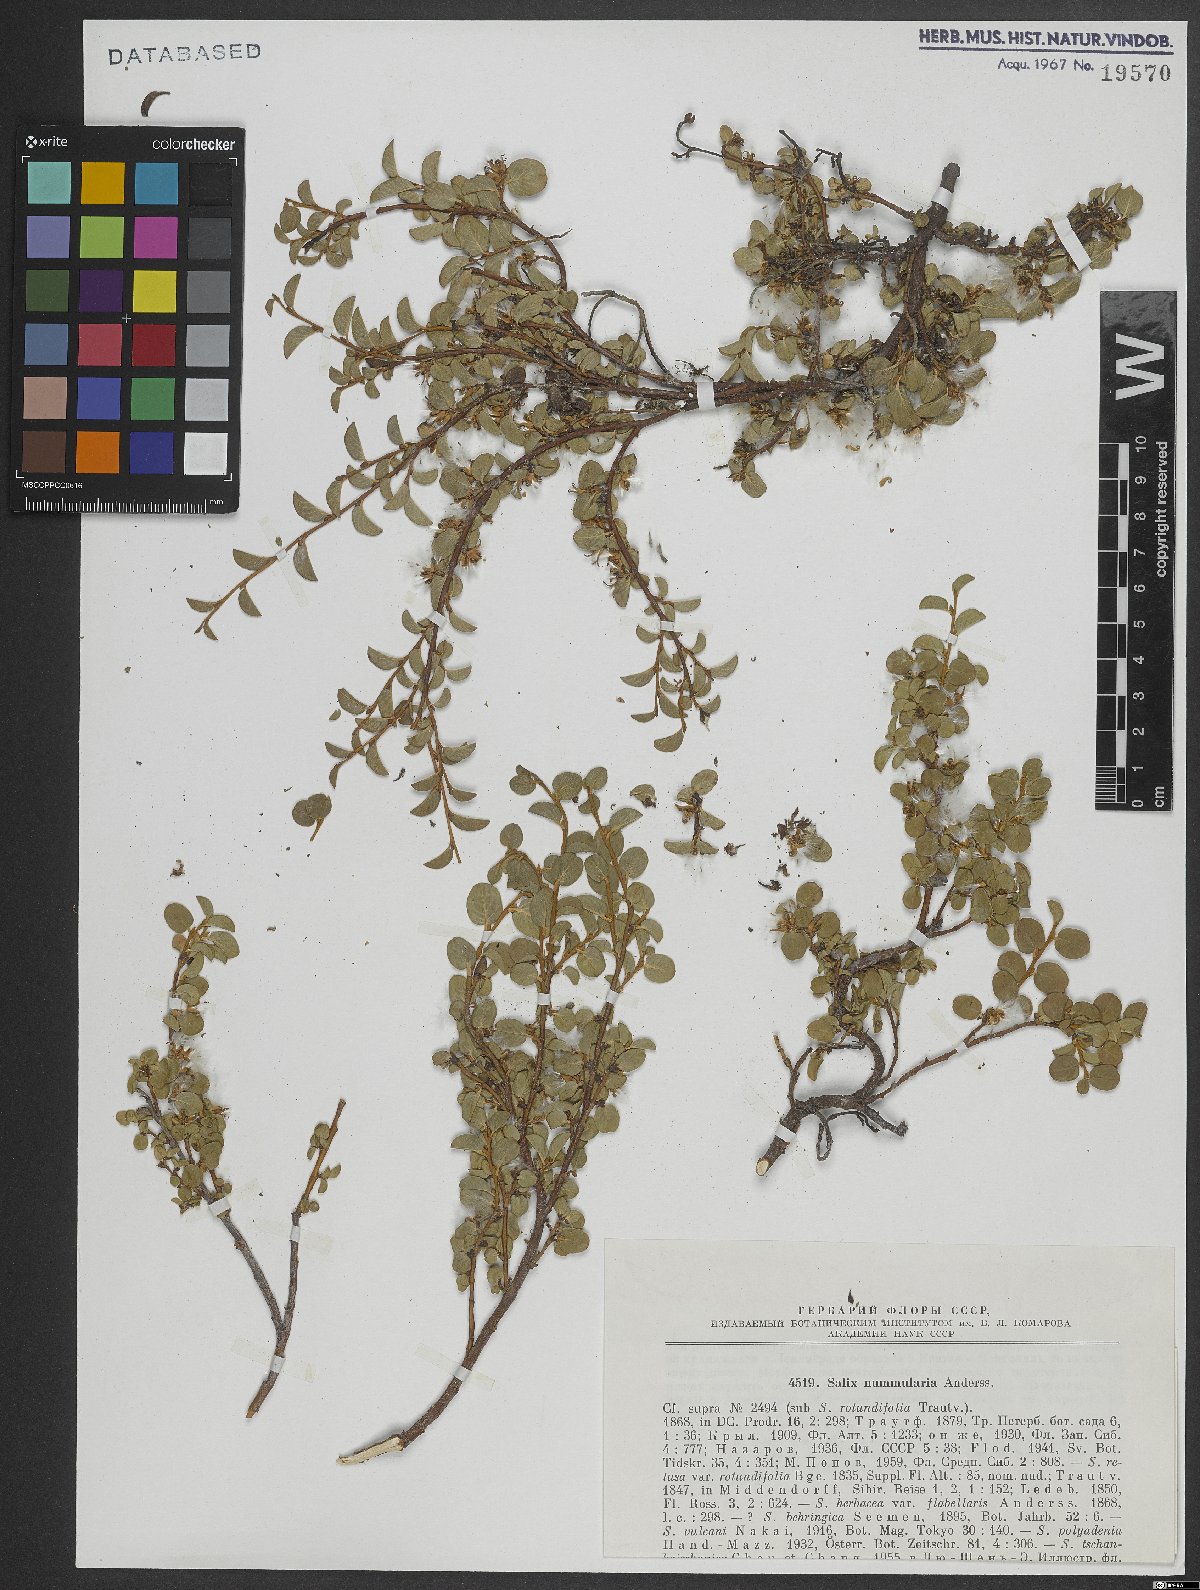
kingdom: Plantae
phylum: Tracheophyta
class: Magnoliopsida
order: Malpighiales
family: Salicaceae
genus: Salix
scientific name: Salix nummularia
